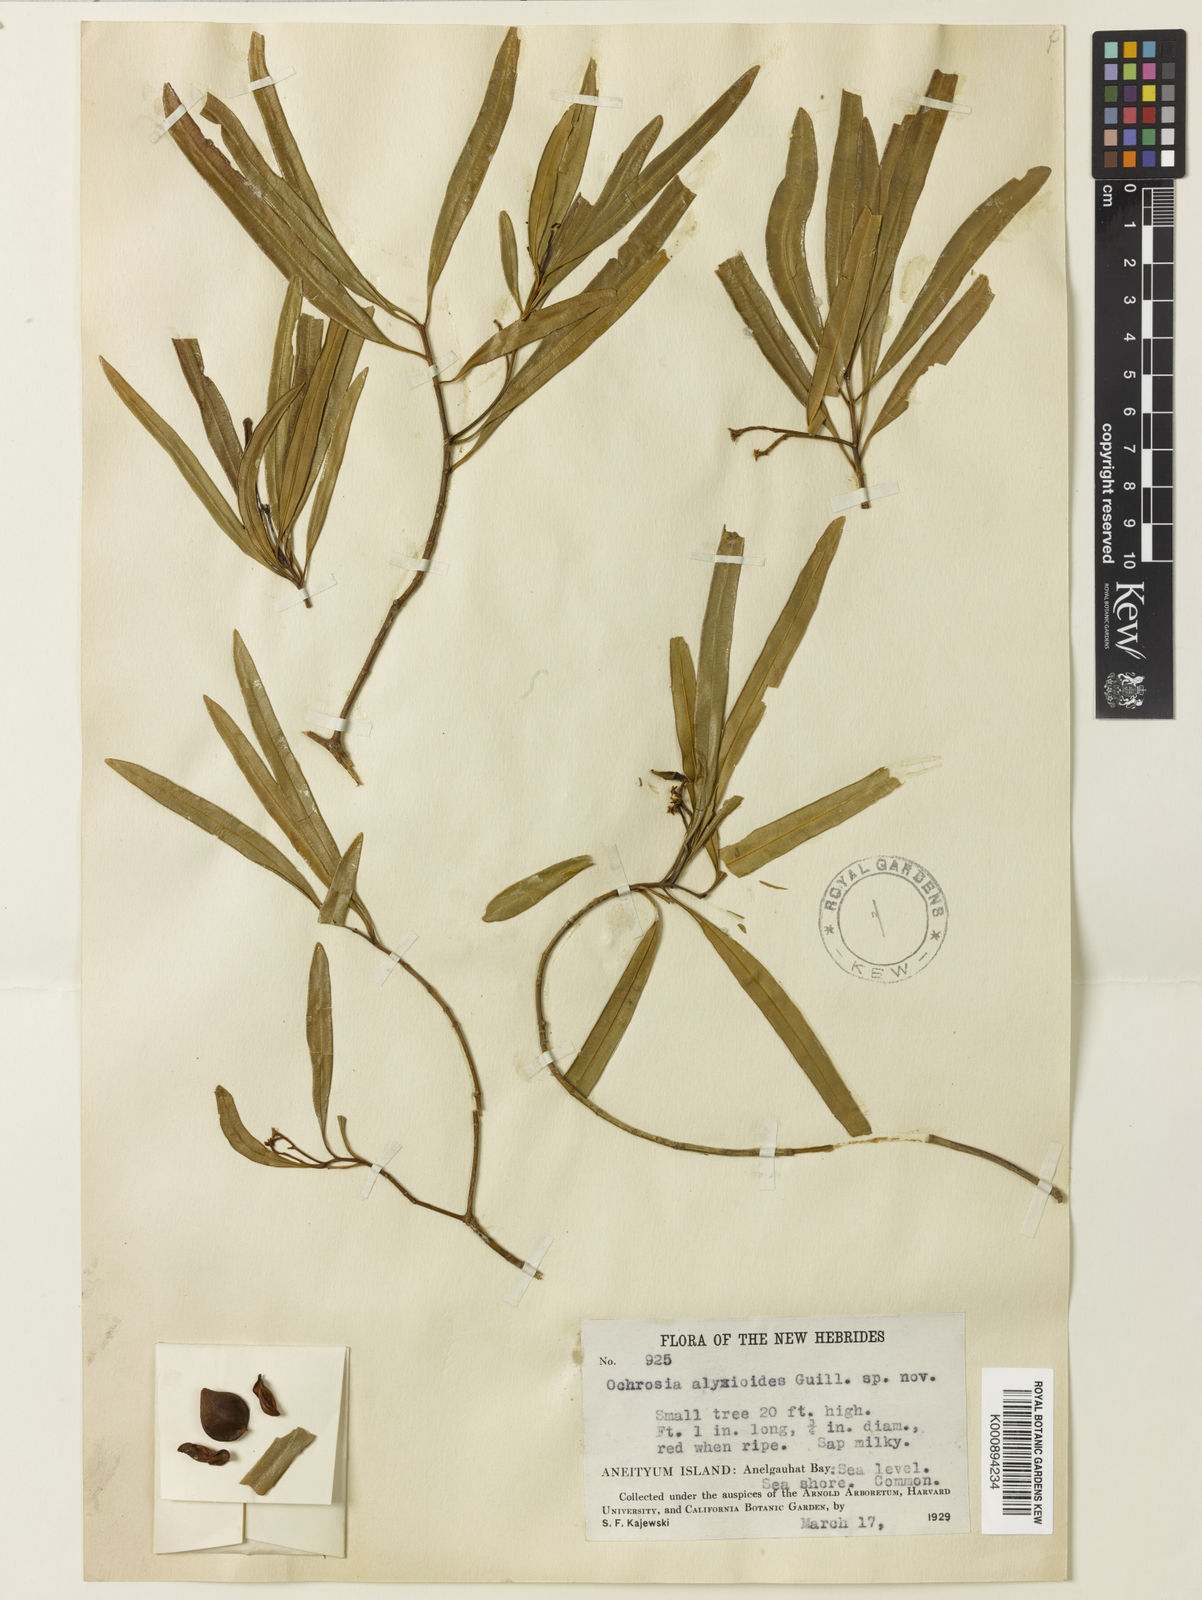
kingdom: Plantae
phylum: Tracheophyta
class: Magnoliopsida
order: Gentianales
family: Apocynaceae
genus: Ochrosia
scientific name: Ochrosia alyxioides
